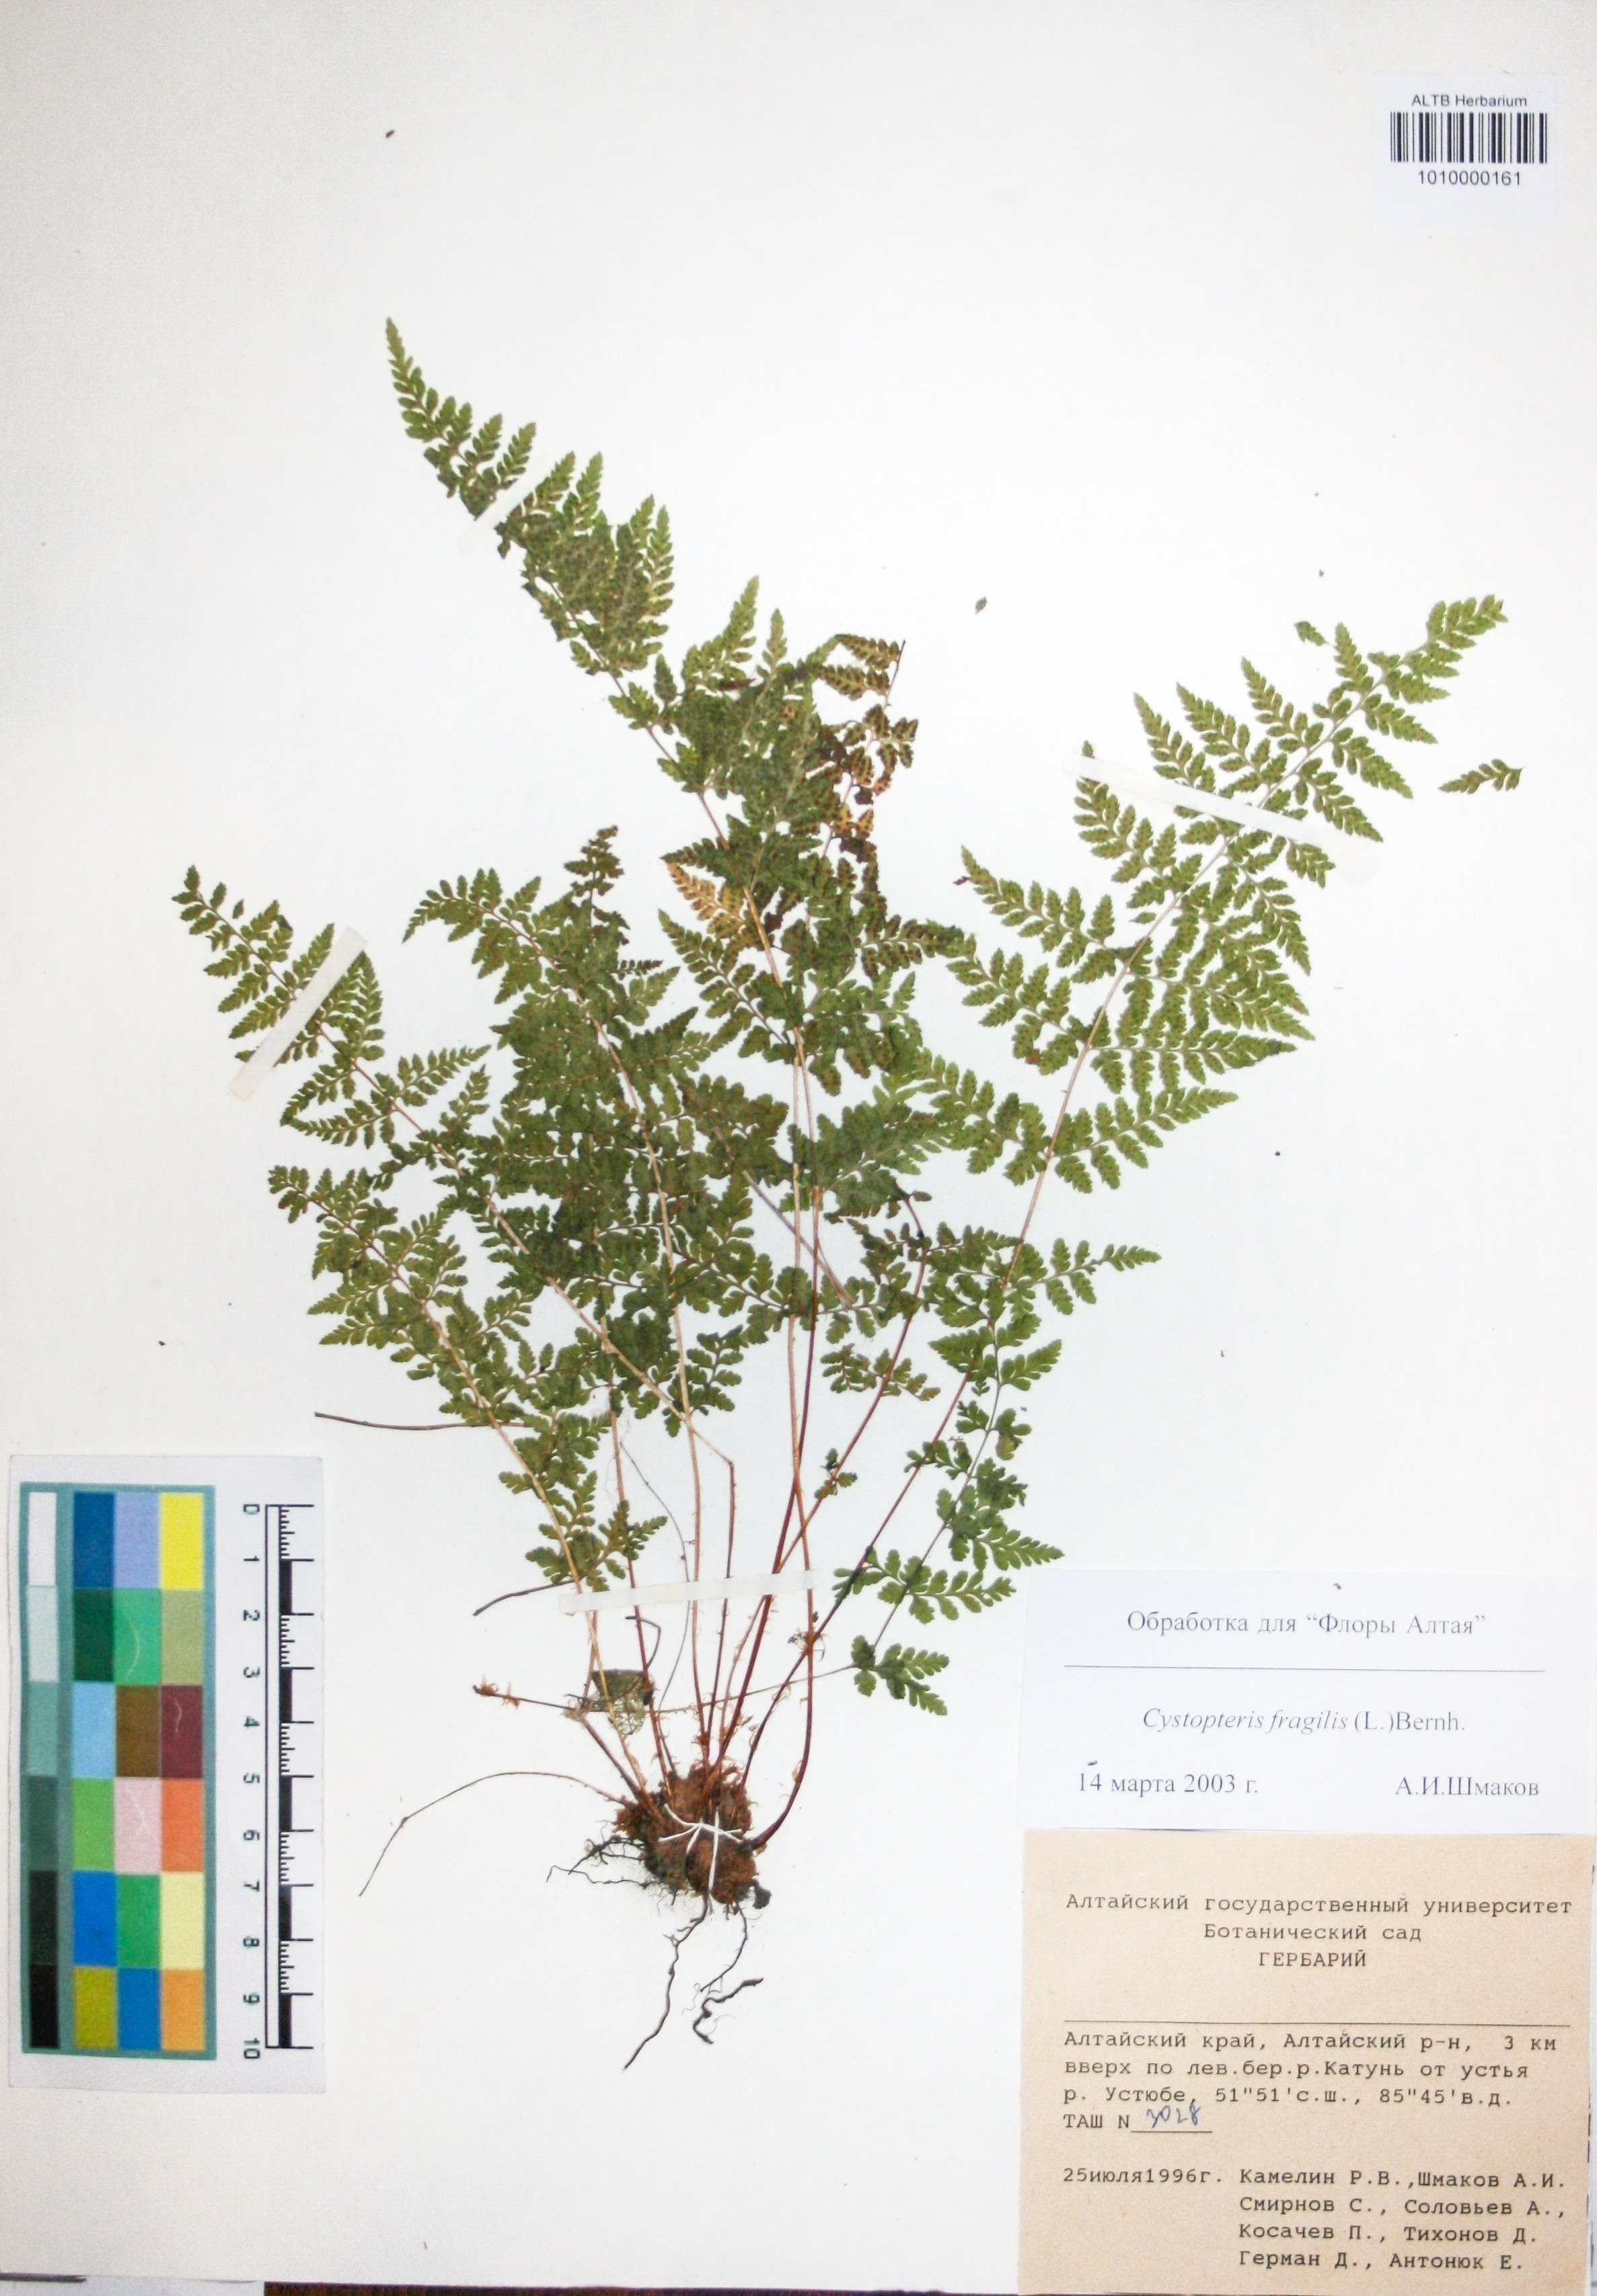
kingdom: Plantae
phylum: Tracheophyta
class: Polypodiopsida
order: Polypodiales
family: Cystopteridaceae
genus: Cystopteris
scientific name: Cystopteris fragilis
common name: Brittle bladder fern
